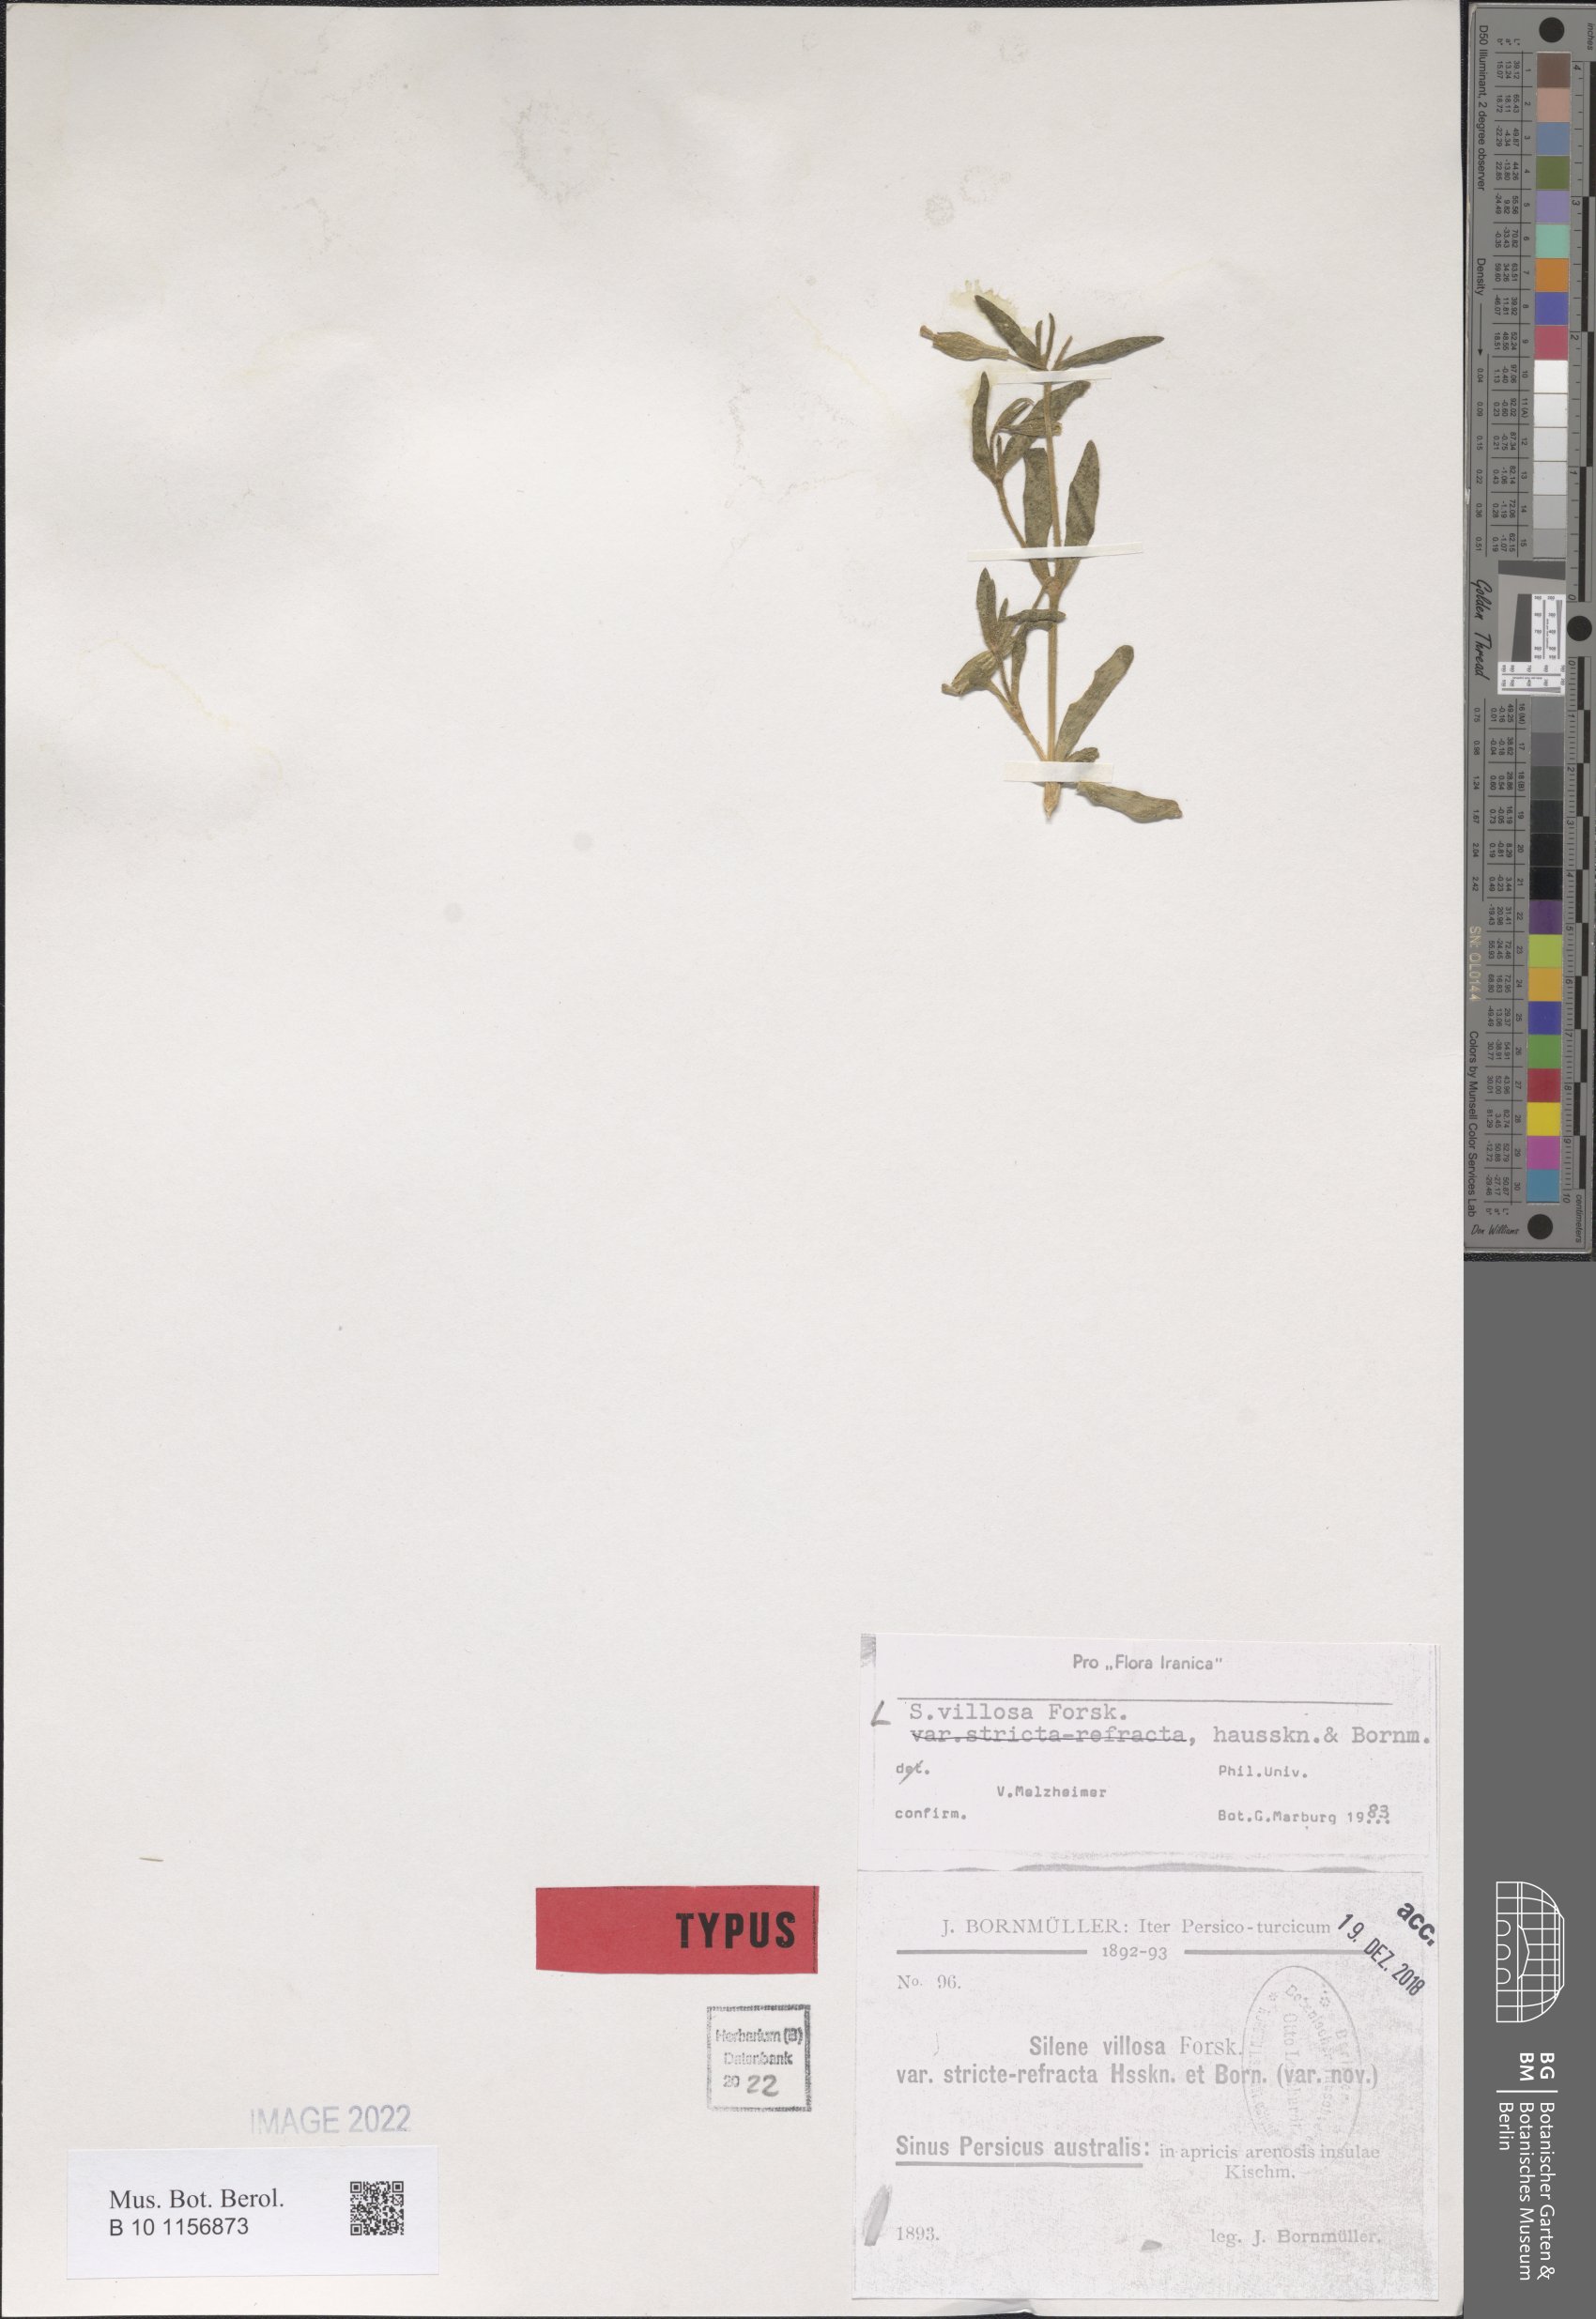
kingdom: Plantae
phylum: Tracheophyta
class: Magnoliopsida
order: Caryophyllales
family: Caryophyllaceae
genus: Silene
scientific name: Silene villosa
